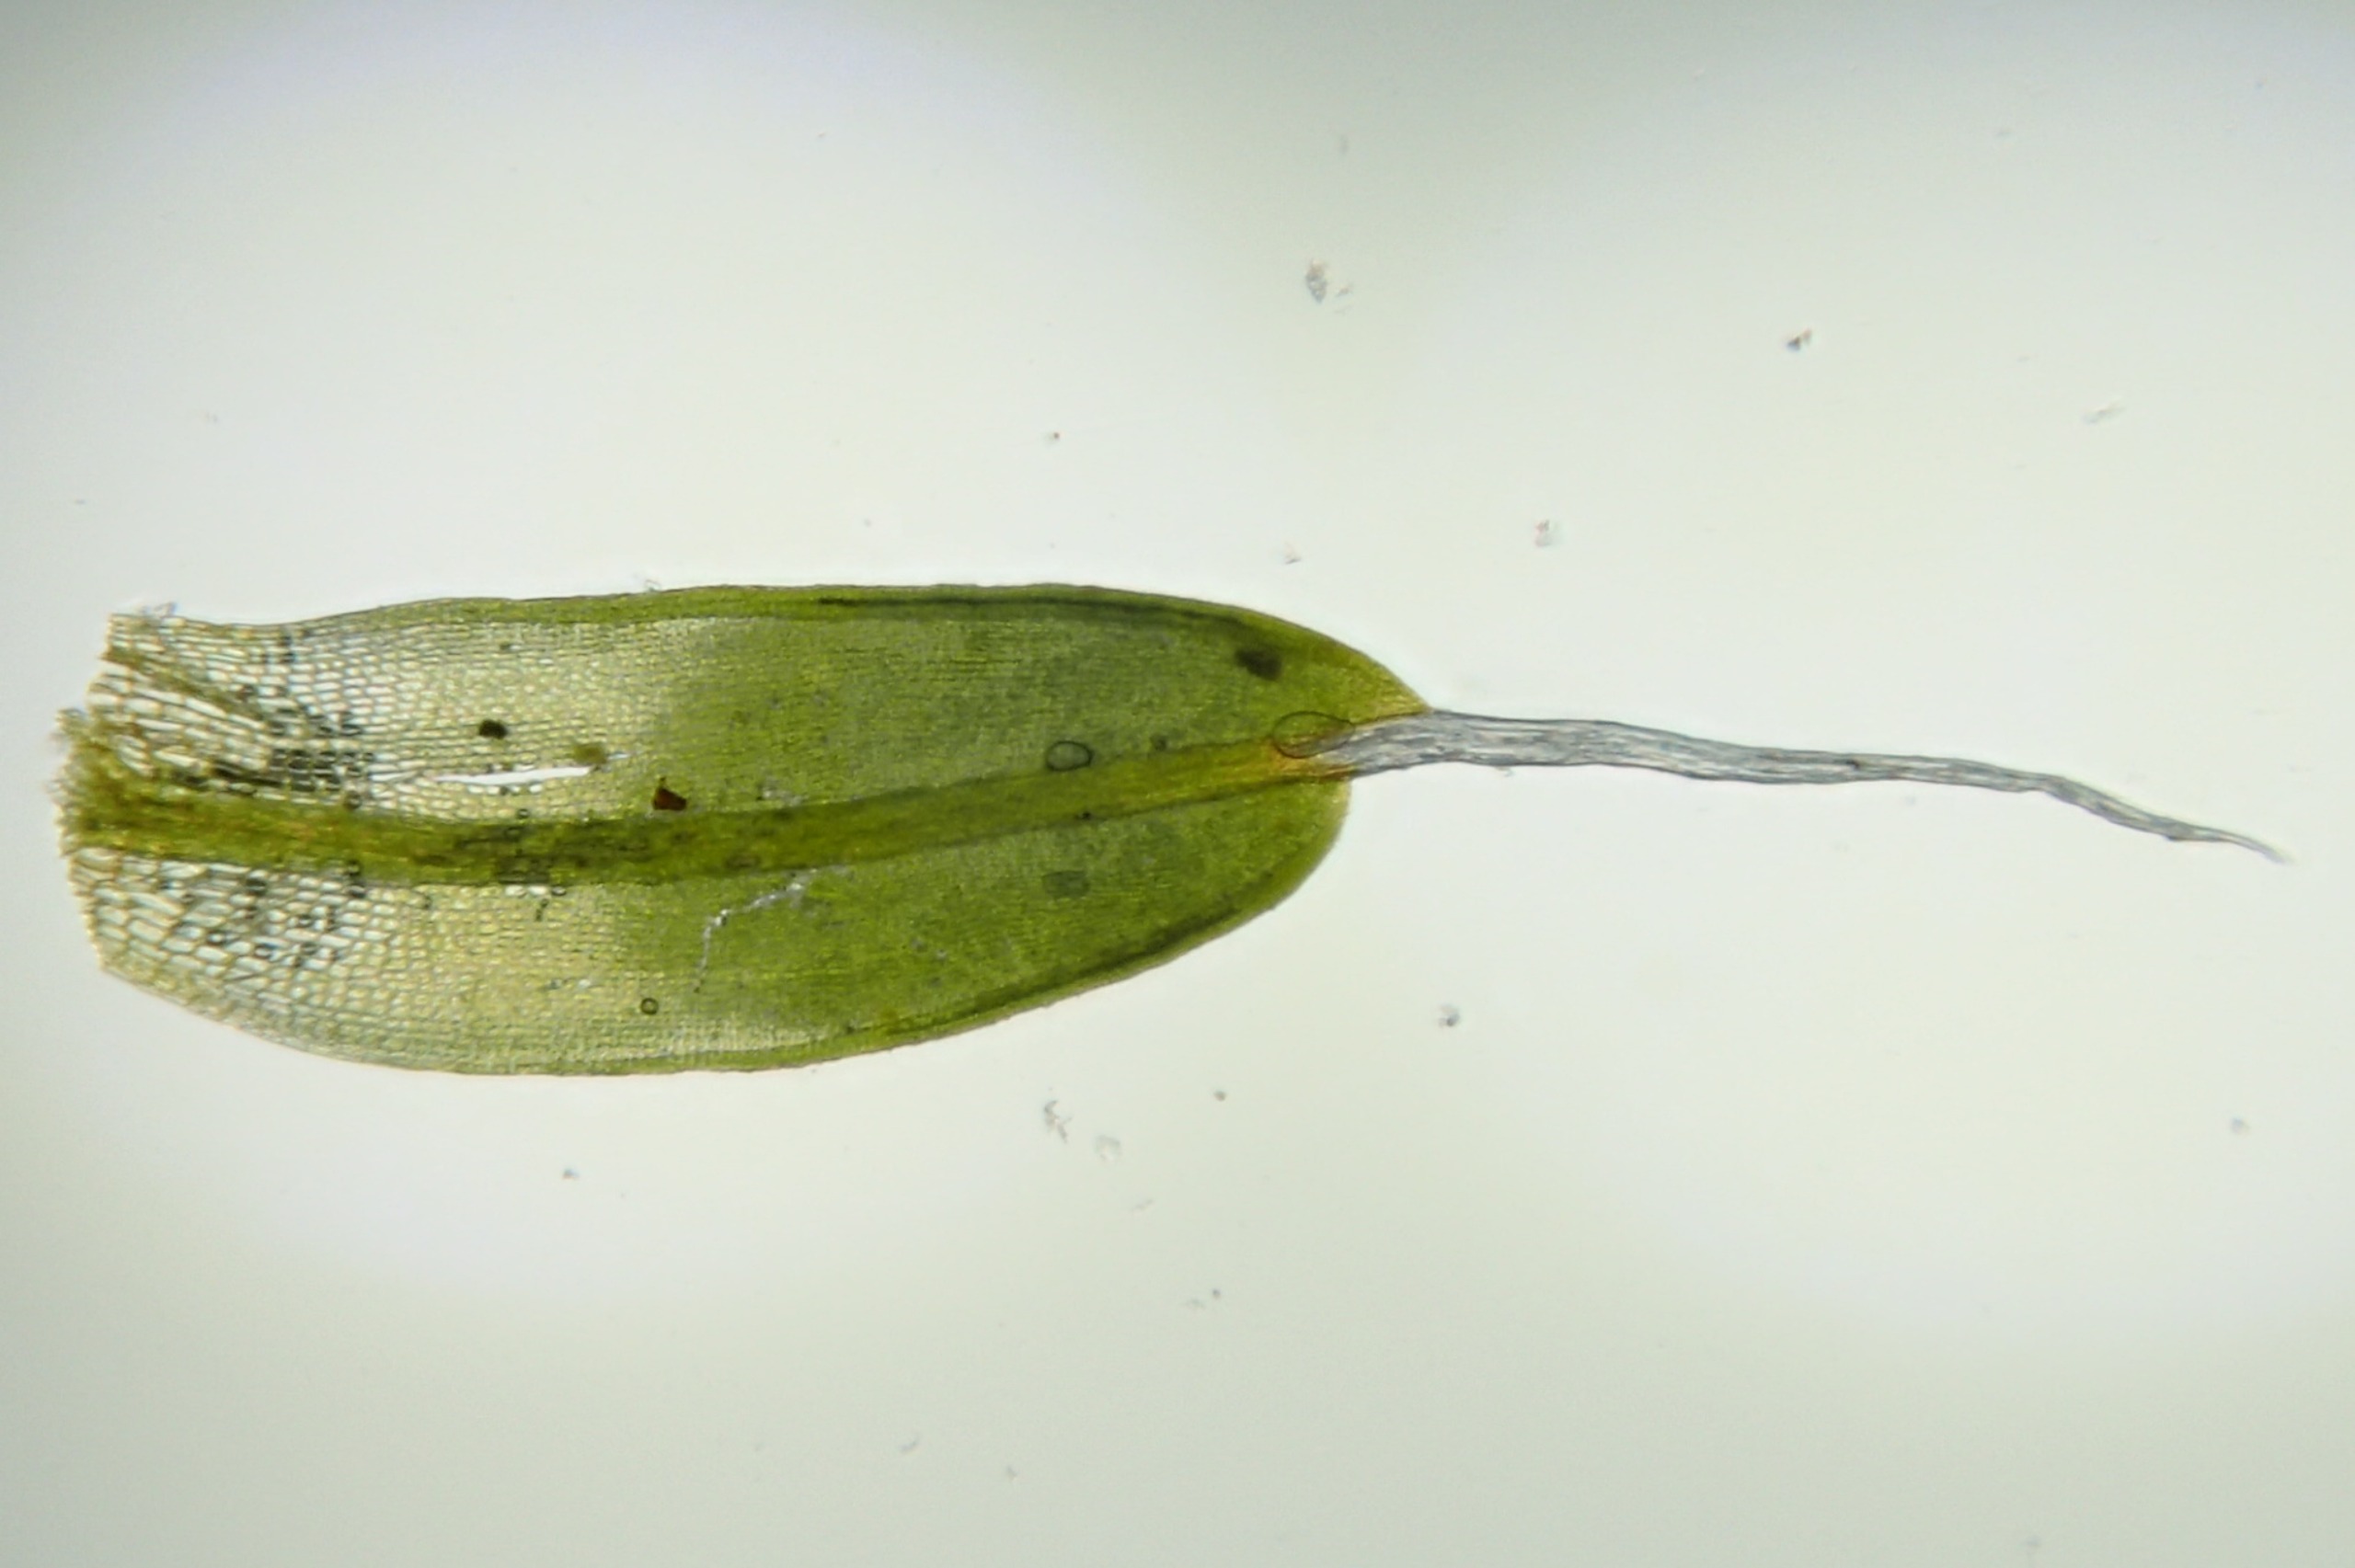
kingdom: Plantae
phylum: Bryophyta
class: Bryopsida
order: Pottiales
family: Pottiaceae
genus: Tortula
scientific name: Tortula muralis
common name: Mur-snotand
